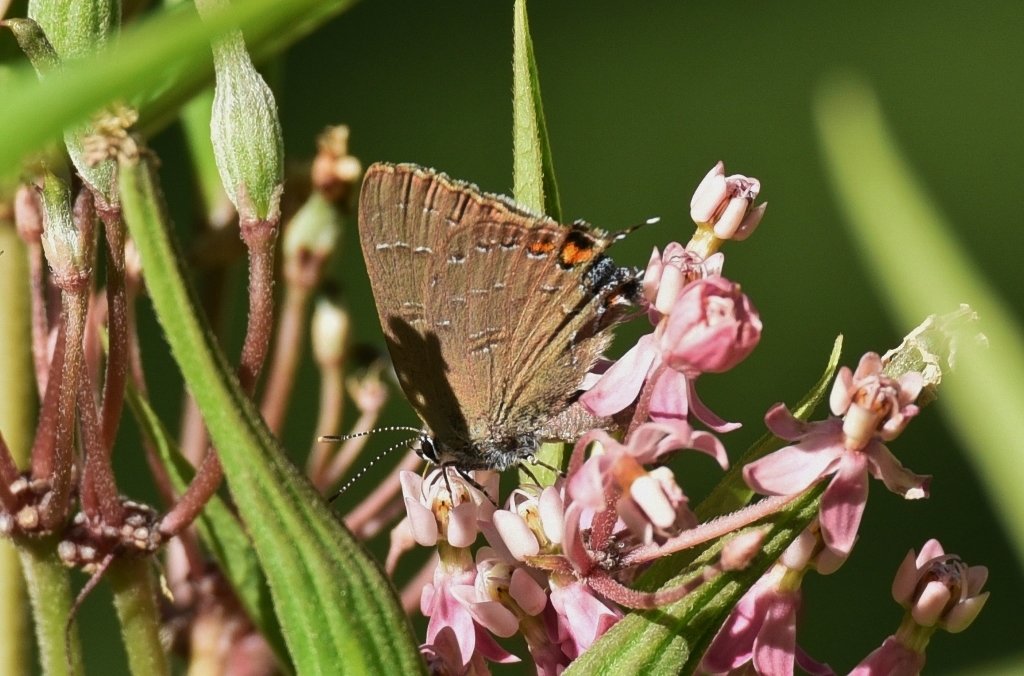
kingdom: Animalia
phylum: Arthropoda
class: Insecta
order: Lepidoptera
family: Lycaenidae
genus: Satyrium
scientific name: Satyrium calanus
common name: Banded Hairstreak
